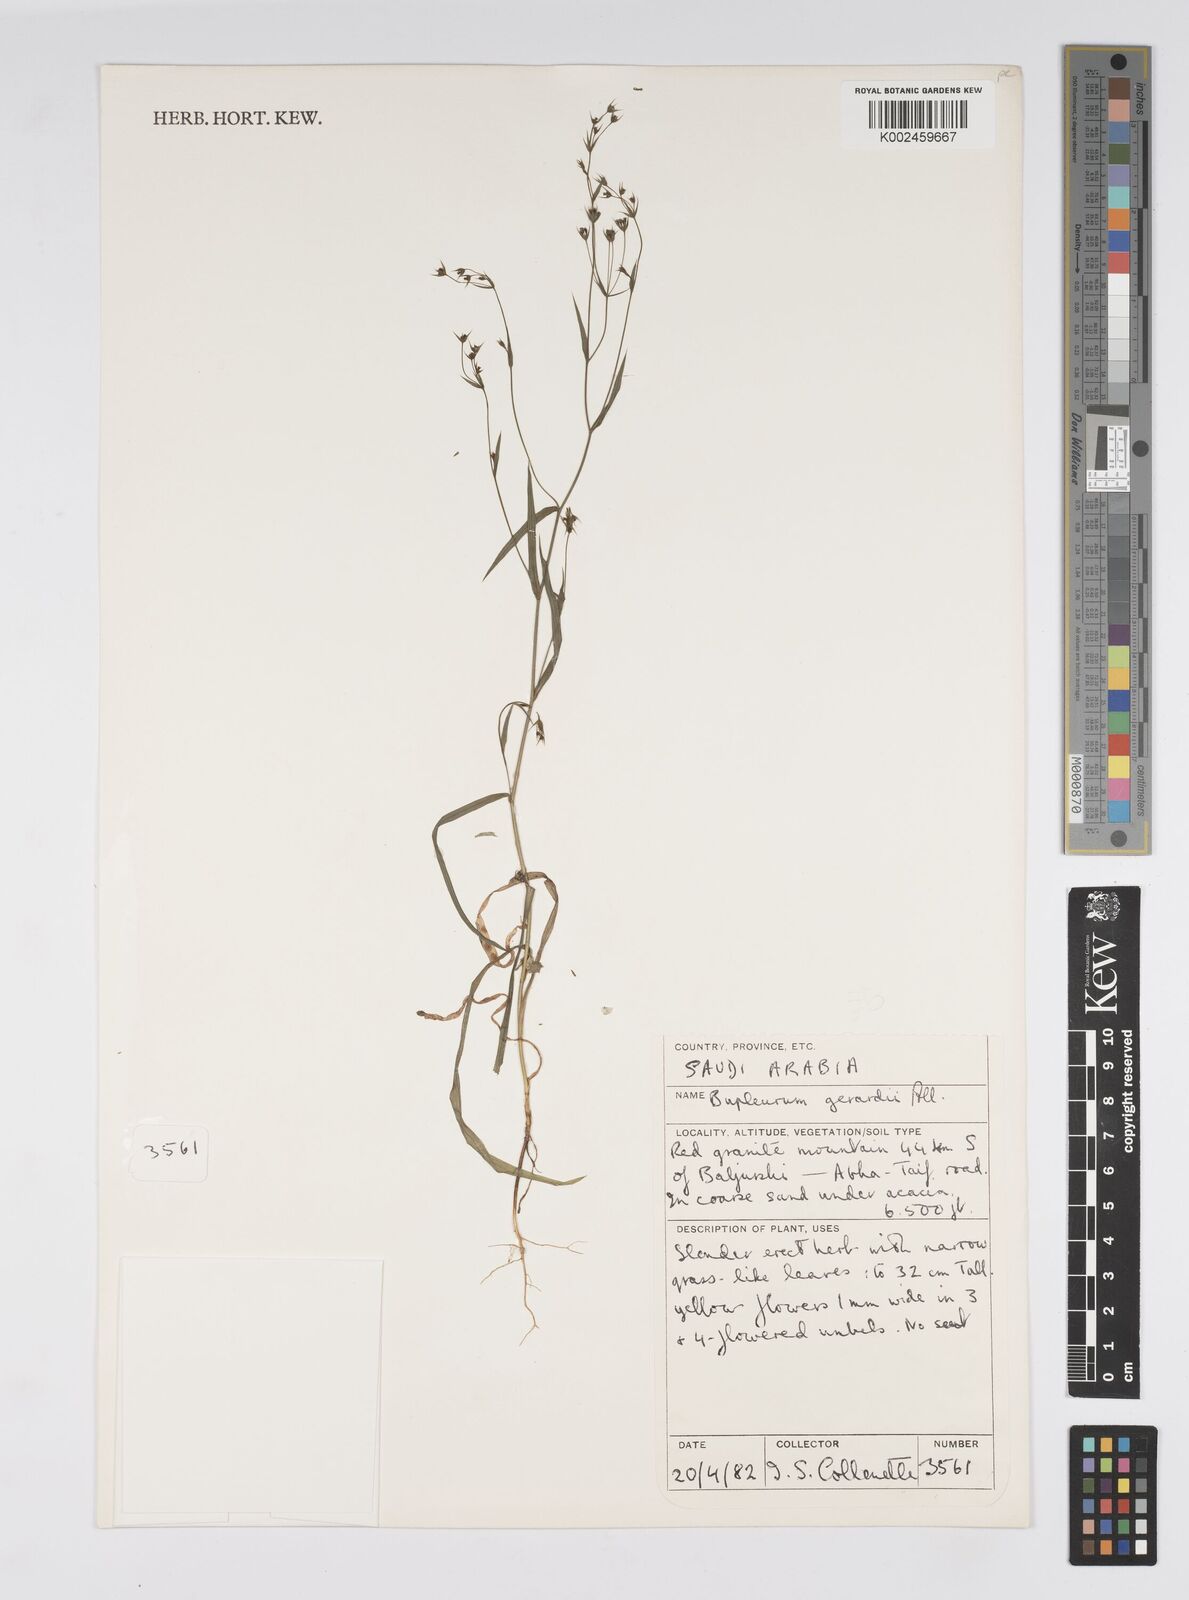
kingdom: Plantae
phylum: Tracheophyta
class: Magnoliopsida
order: Apiales
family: Apiaceae
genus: Bupleurum
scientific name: Bupleurum gerardi
